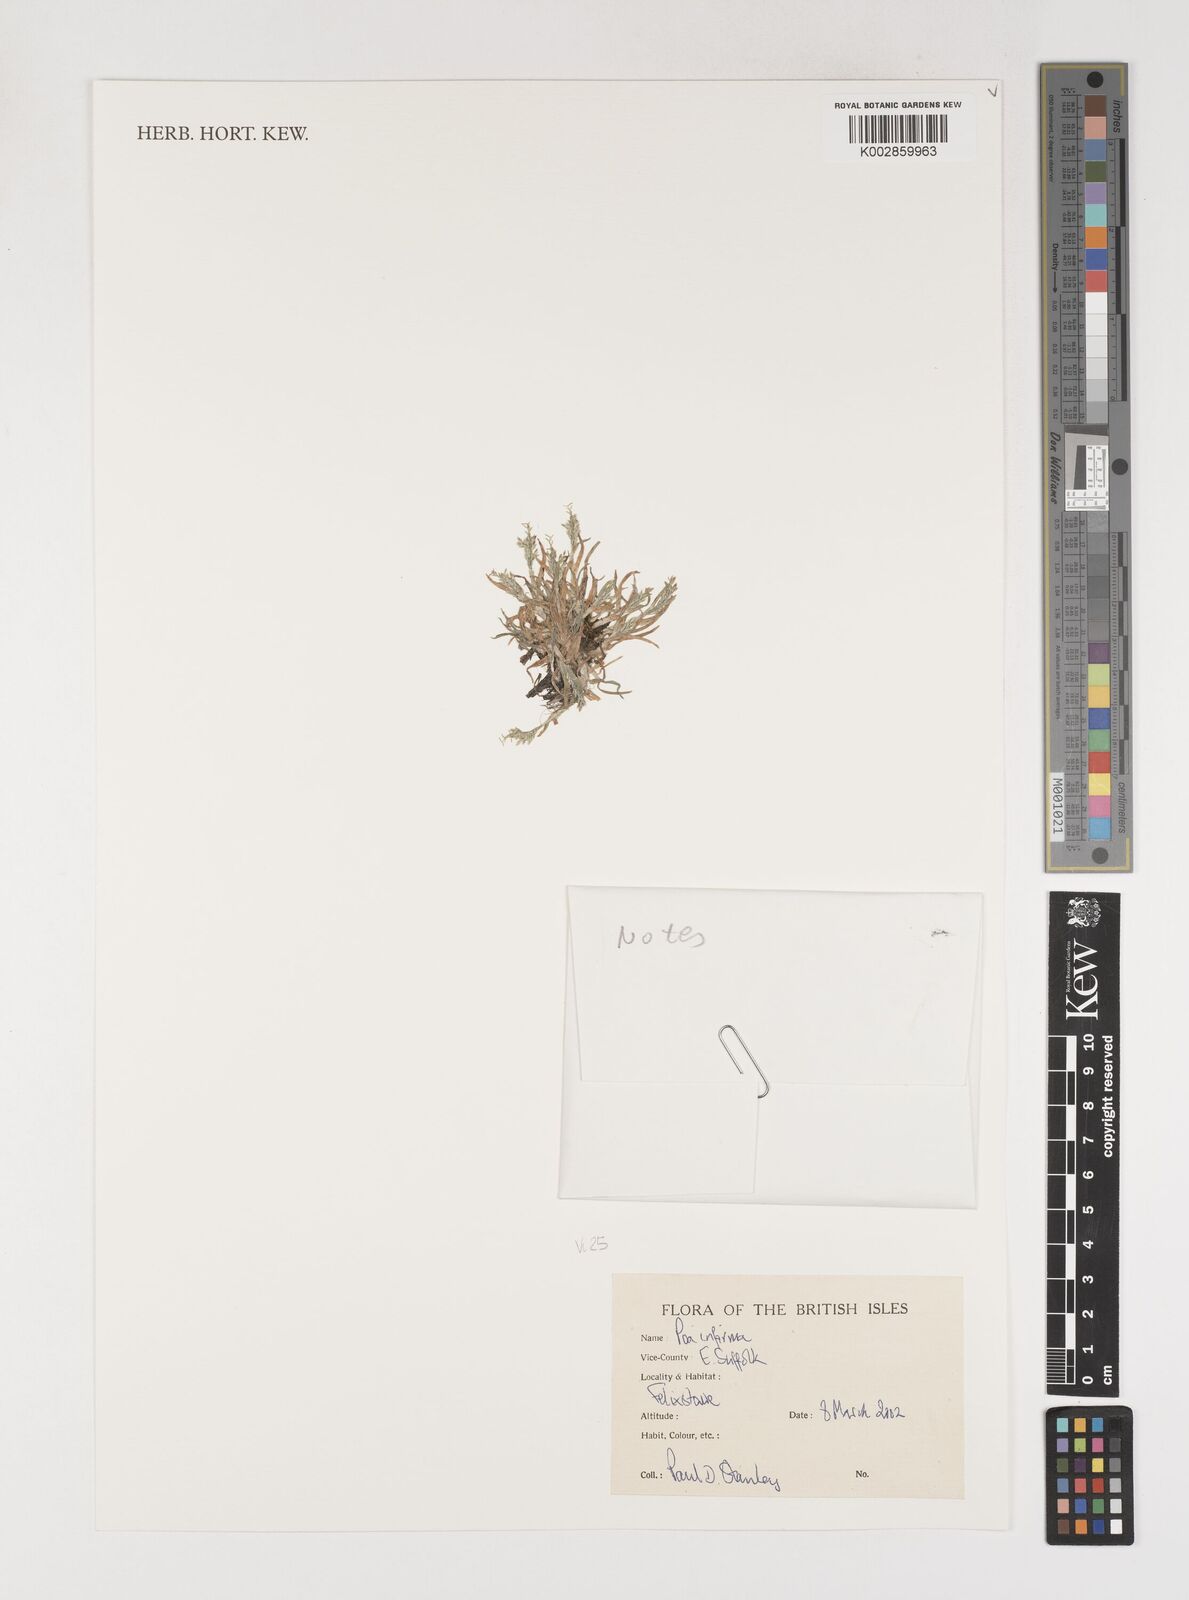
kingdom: Plantae
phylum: Tracheophyta
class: Liliopsida
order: Poales
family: Poaceae
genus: Poa
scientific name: Poa infirma
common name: Weak bluegrass
